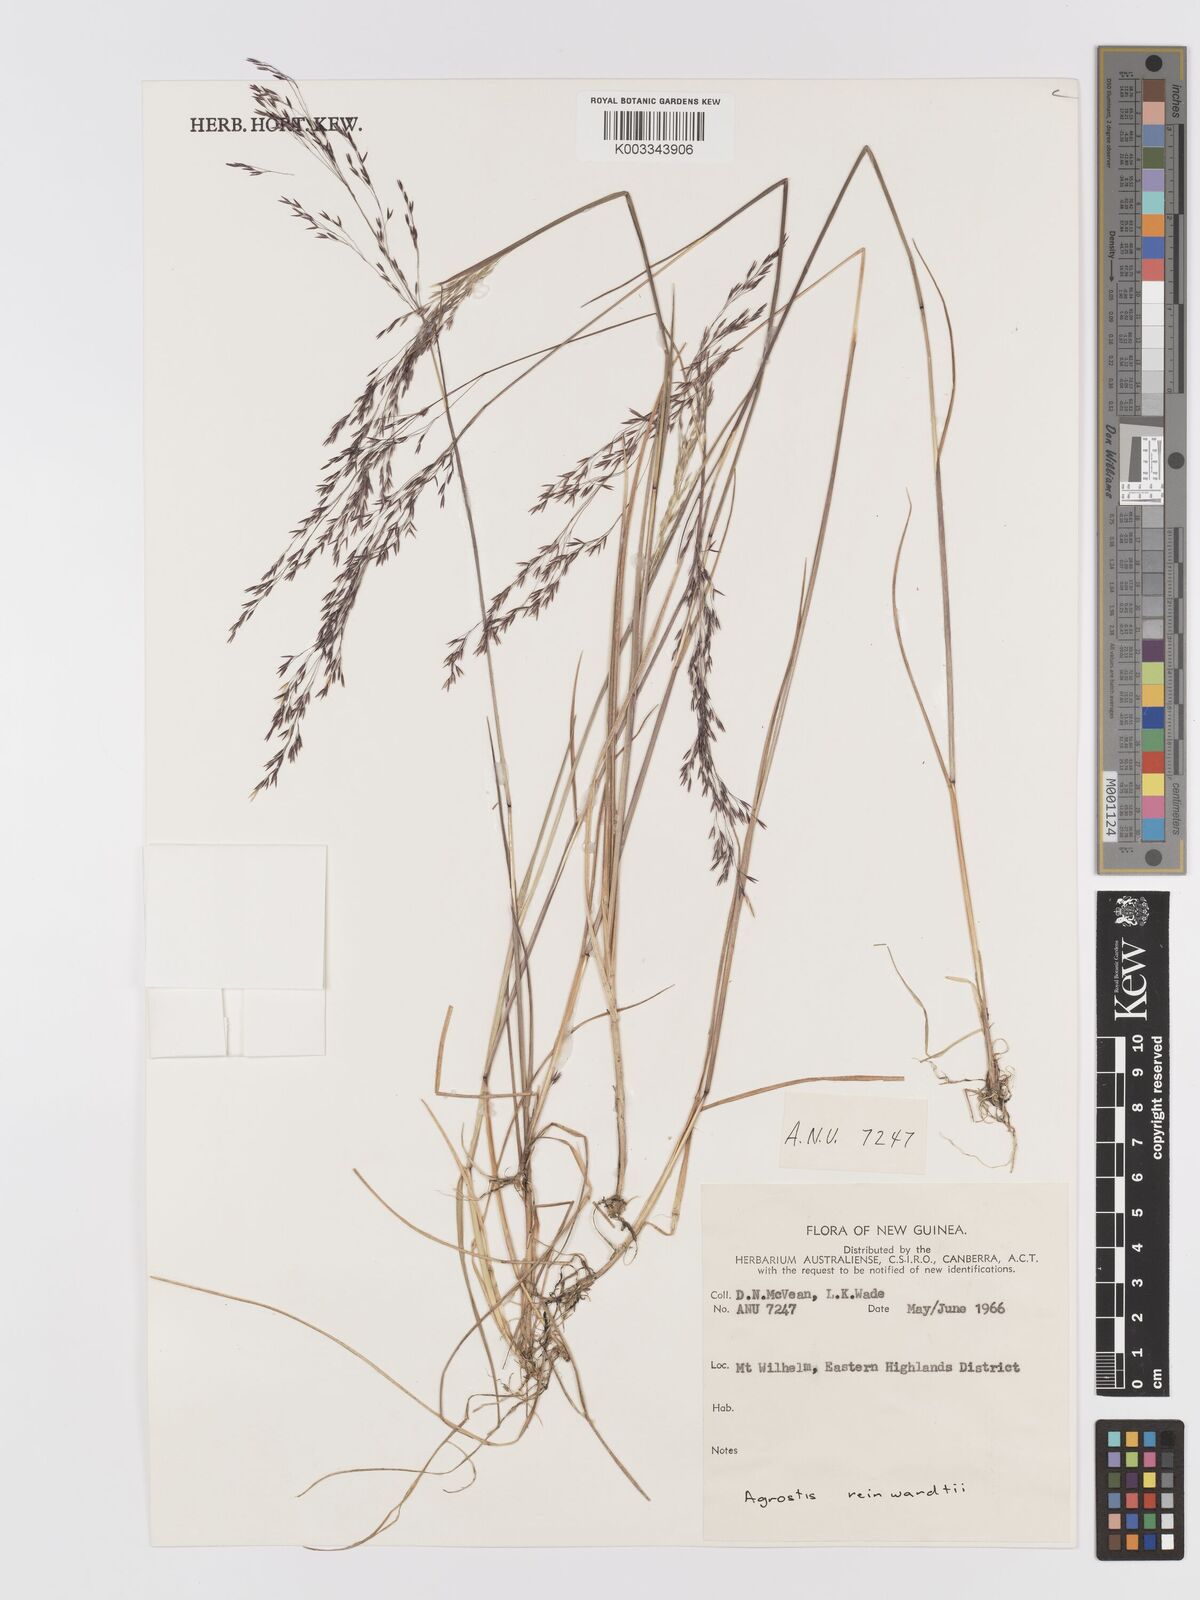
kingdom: Plantae
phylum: Tracheophyta
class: Liliopsida
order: Poales
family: Poaceae
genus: Agrostis
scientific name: Agrostis infirma
